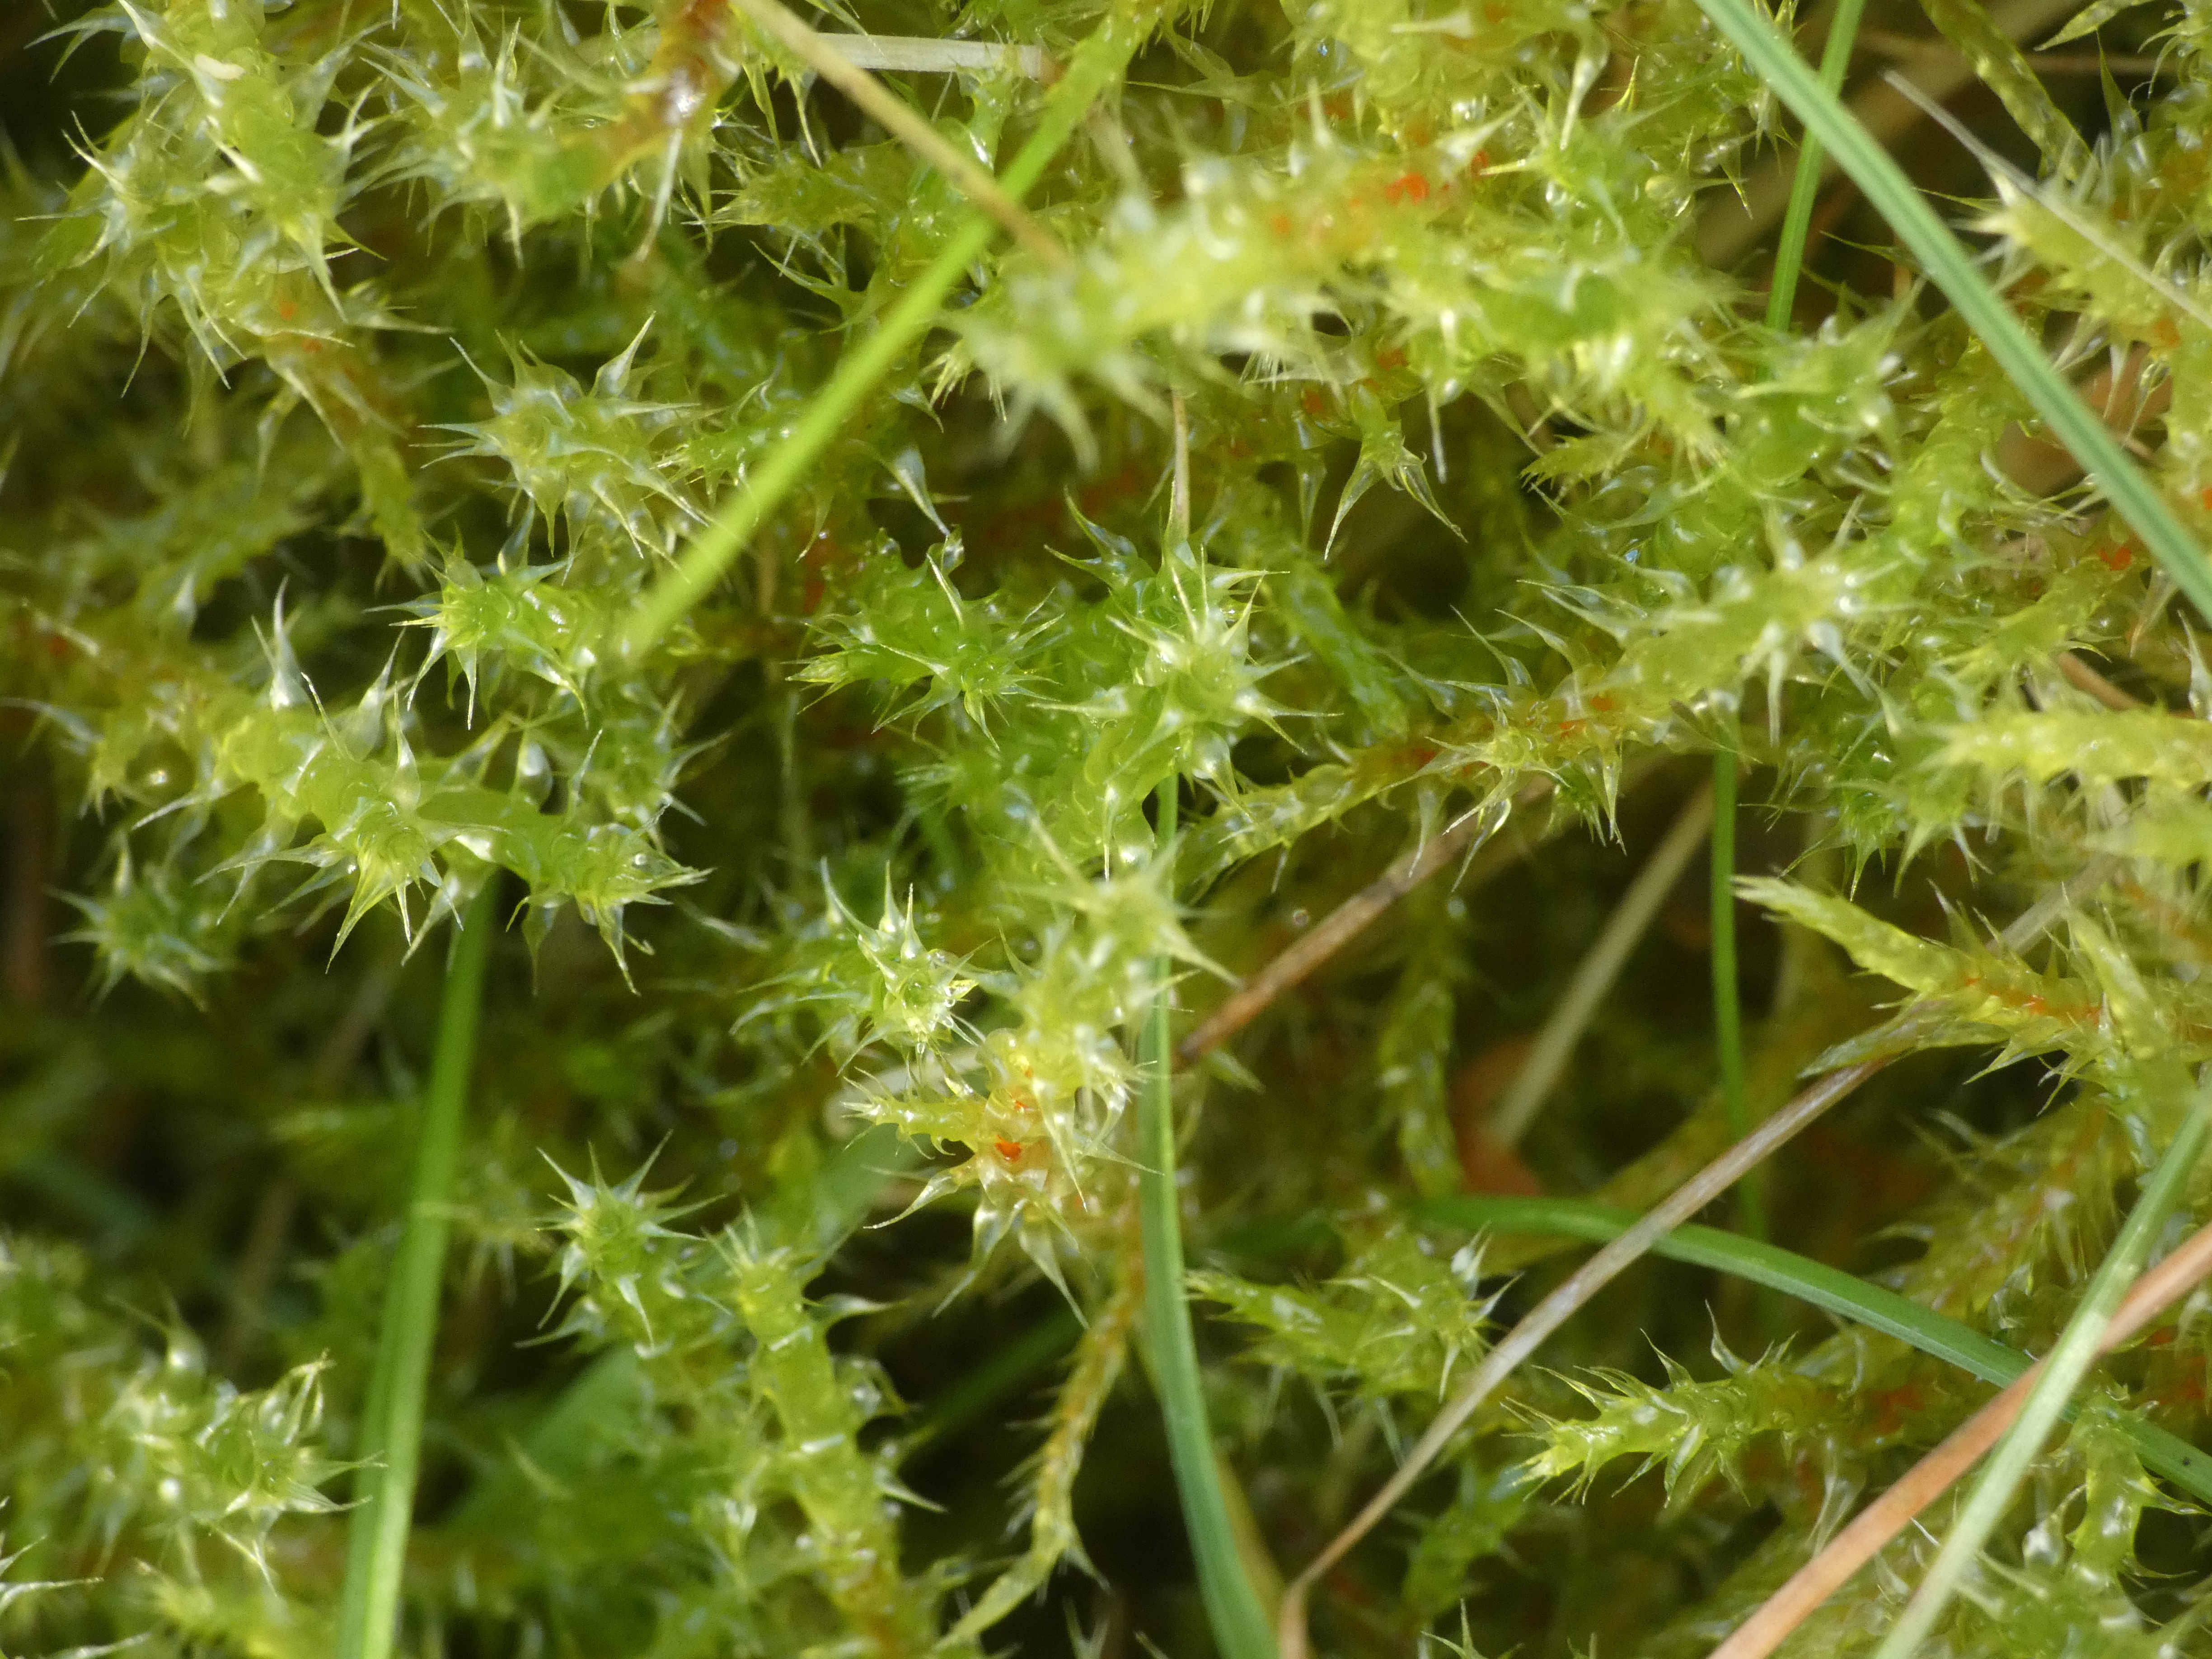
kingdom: Plantae
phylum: Bryophyta
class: Bryopsida
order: Hypnales
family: Hylocomiaceae
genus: Rhytidiadelphus
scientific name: Rhytidiadelphus squarrosus
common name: Plæne-kransemos
